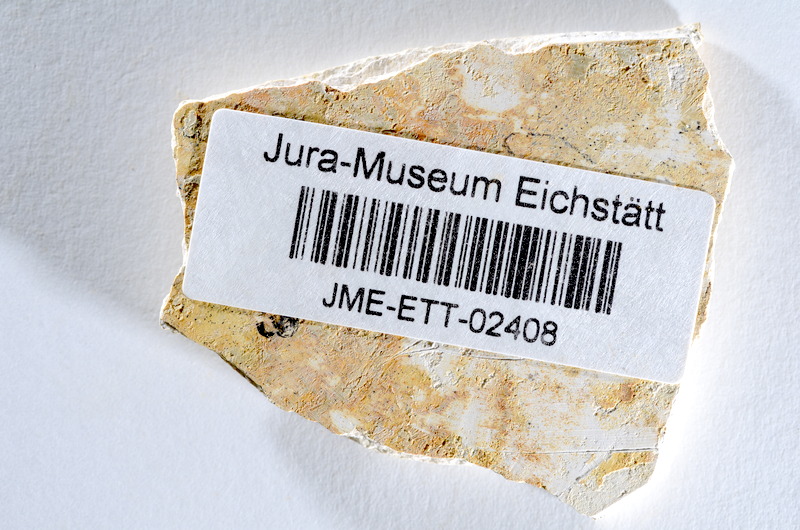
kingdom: Animalia
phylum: Chordata
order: Salmoniformes
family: Orthogonikleithridae
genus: Orthogonikleithrus
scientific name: Orthogonikleithrus hoelli
